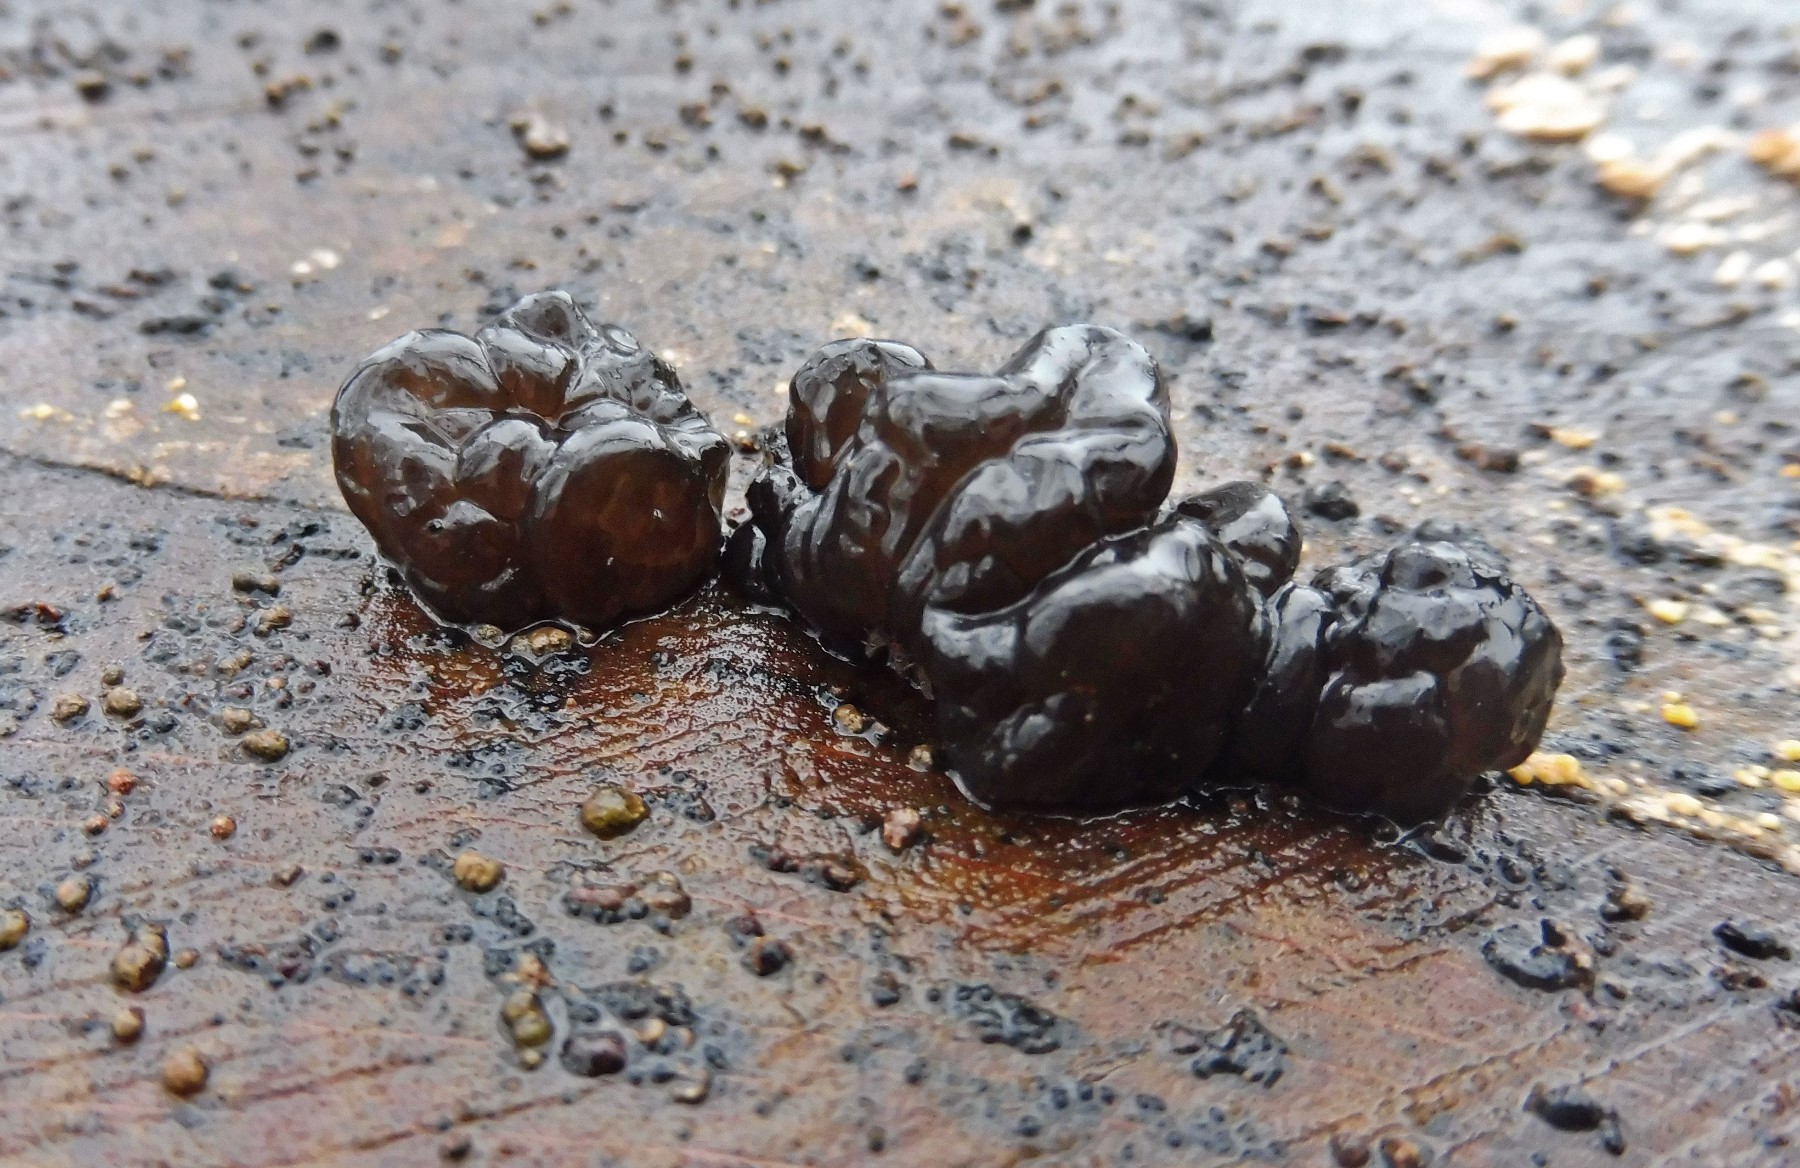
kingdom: Fungi
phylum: Basidiomycota
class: Agaricomycetes
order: Auriculariales
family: Auriculariaceae
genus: Exidia
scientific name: Exidia nigricans
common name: almindelig bævretop
